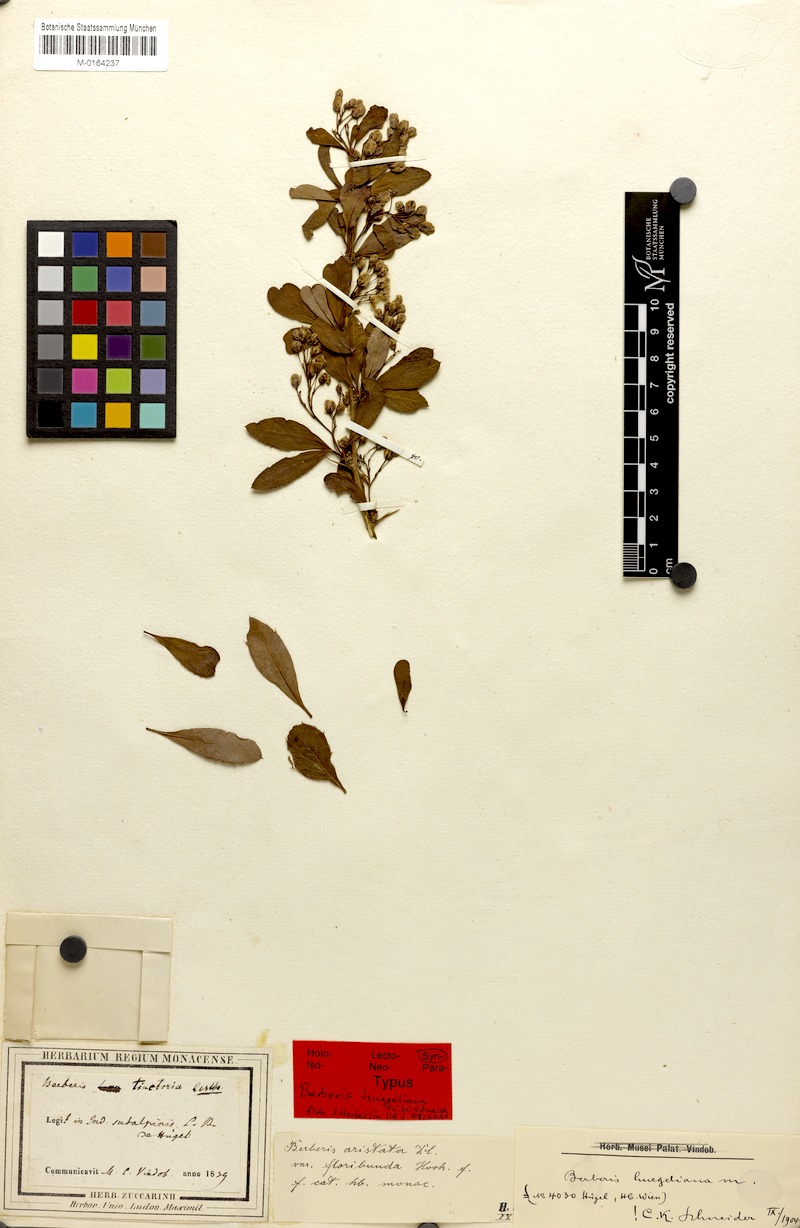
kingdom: Plantae
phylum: Tracheophyta
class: Magnoliopsida
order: Ranunculales
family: Berberidaceae
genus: Berberis
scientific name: Berberis huegeliana
